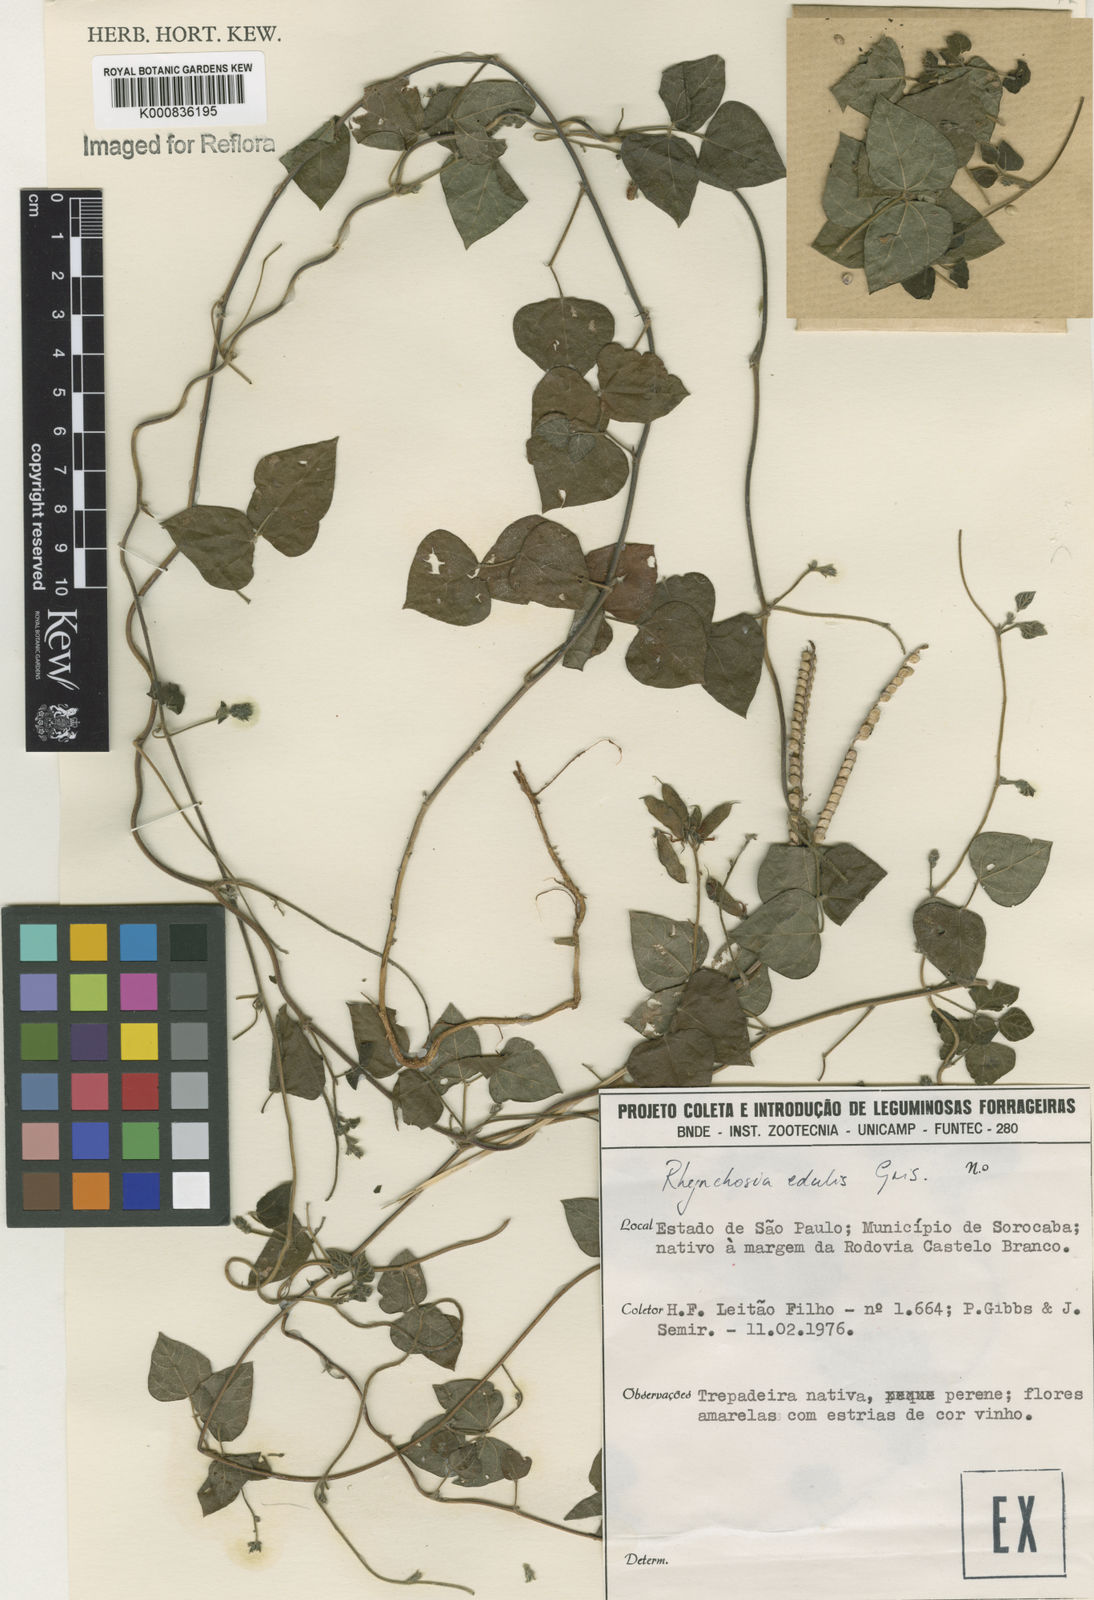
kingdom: Plantae
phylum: Tracheophyta
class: Magnoliopsida
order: Fabales
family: Fabaceae
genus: Rhynchosia
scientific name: Rhynchosia edulis
